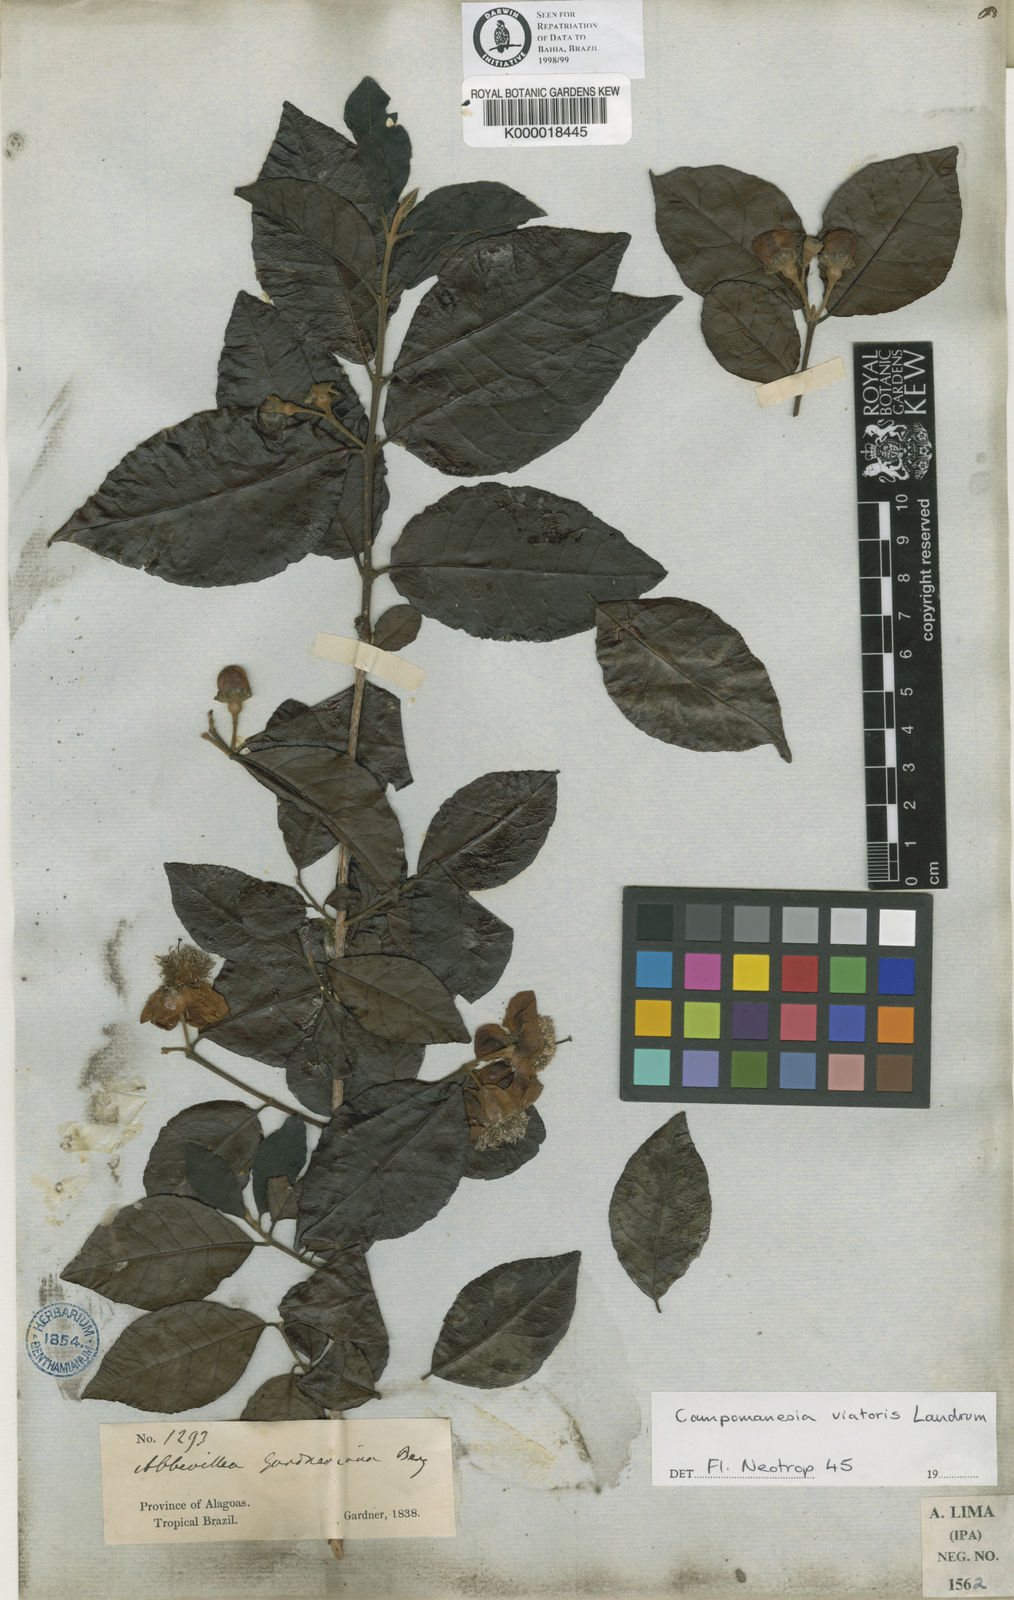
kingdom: Plantae
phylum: Tracheophyta
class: Magnoliopsida
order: Myrtales
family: Myrtaceae
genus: Campomanesia
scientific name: Campomanesia ilhoensis
